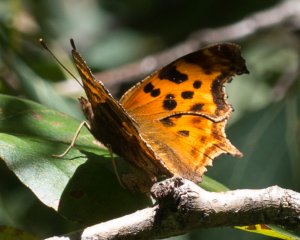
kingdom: Animalia
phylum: Arthropoda
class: Insecta
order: Lepidoptera
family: Nymphalidae
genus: Polygonia
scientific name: Polygonia satyrus
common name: Satyr Comma
